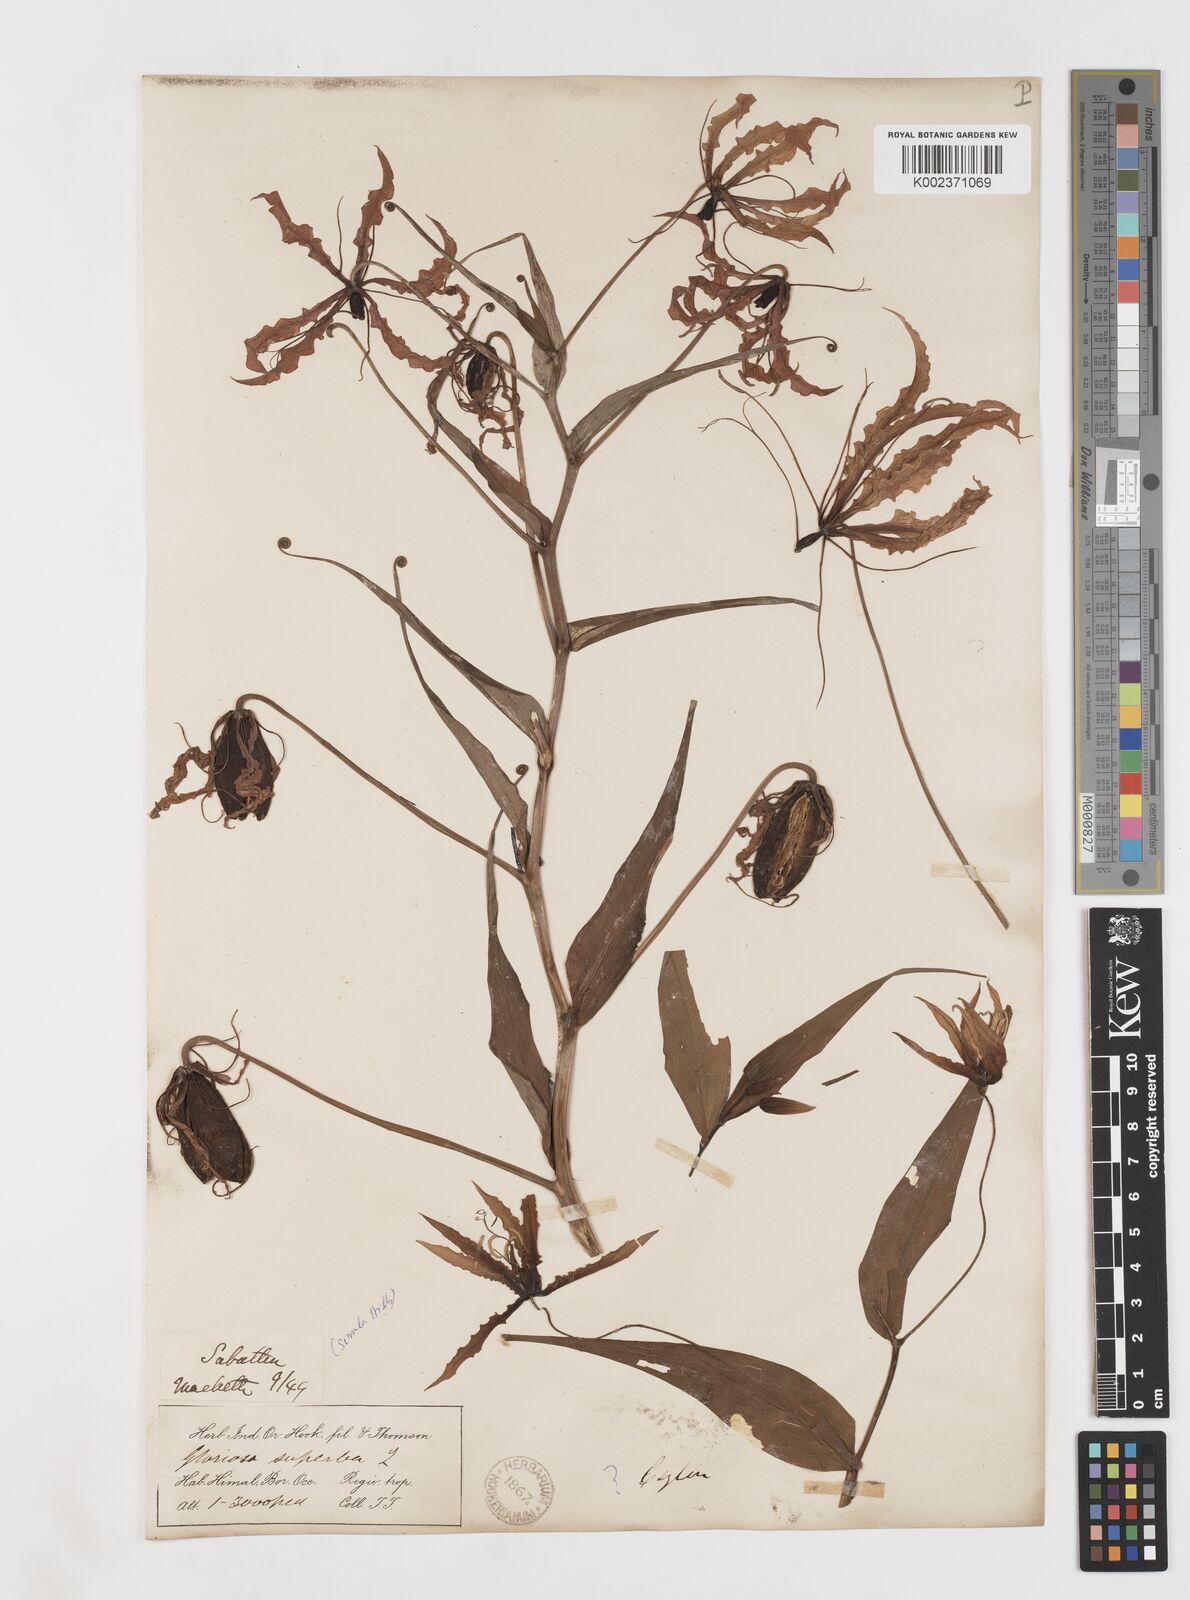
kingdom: Plantae
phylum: Tracheophyta
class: Liliopsida
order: Liliales
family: Colchicaceae
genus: Gloriosa
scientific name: Gloriosa superba
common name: Flame lily
